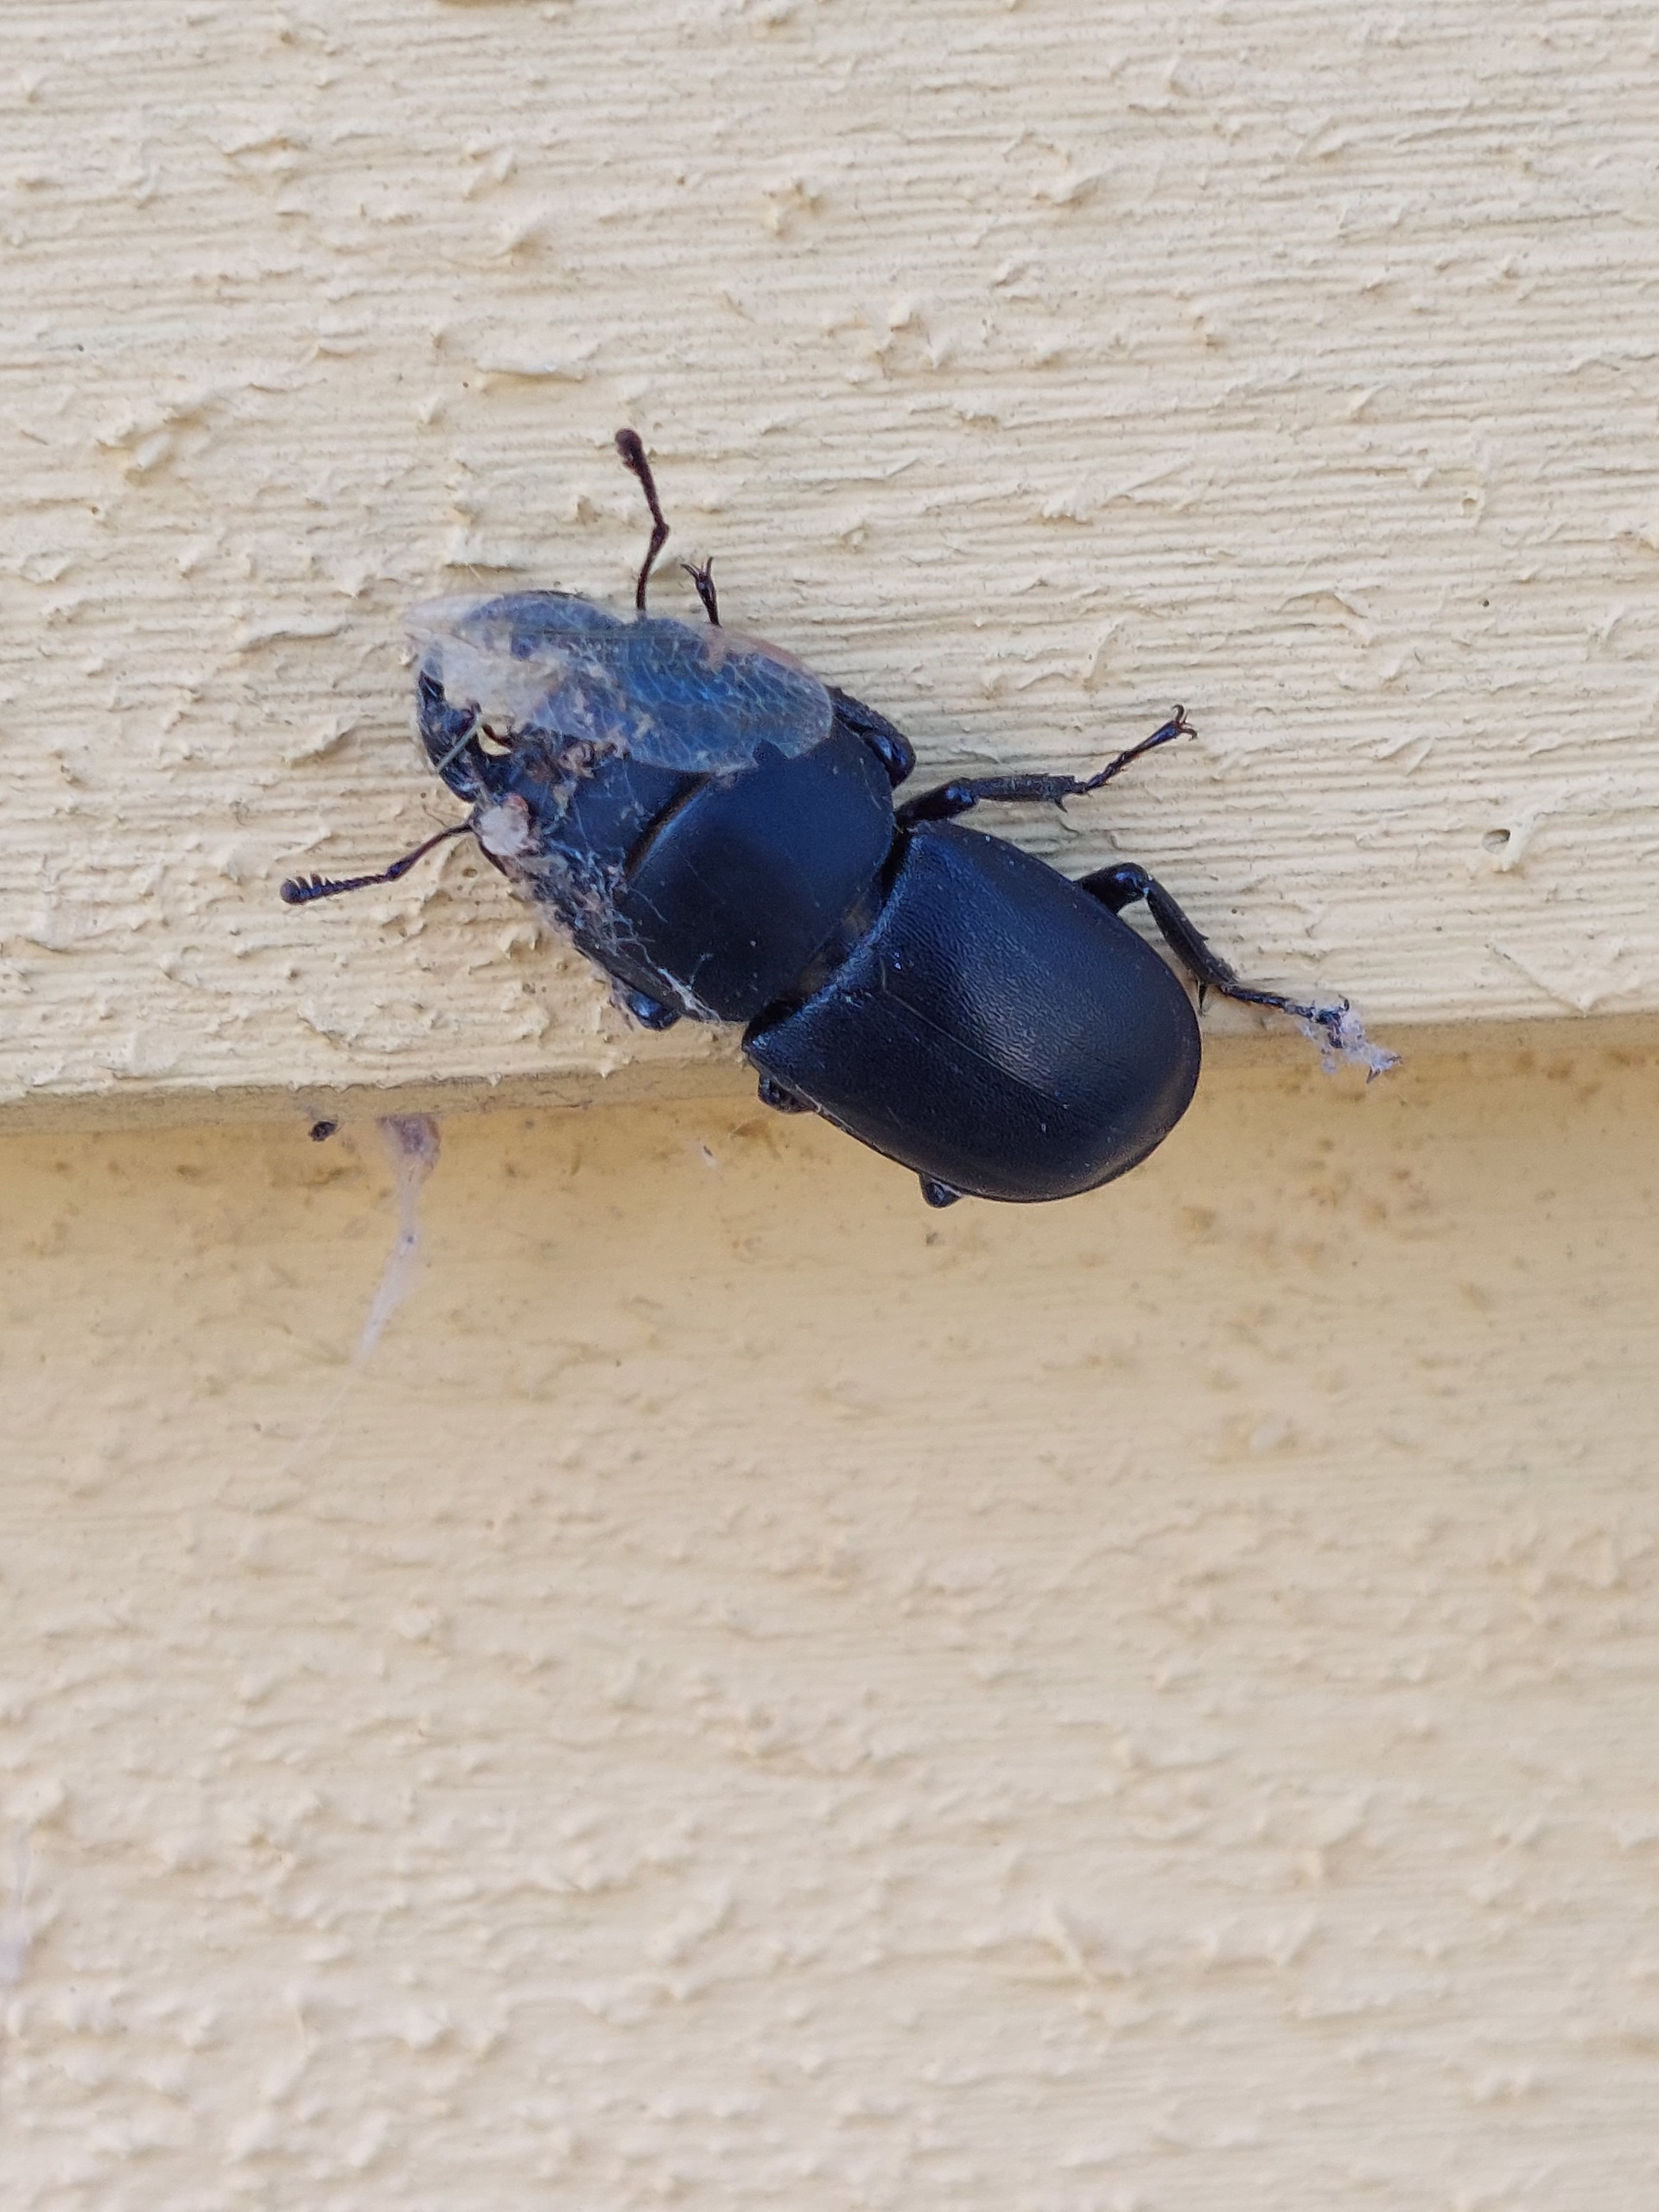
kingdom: Animalia
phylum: Arthropoda
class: Insecta
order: Coleoptera
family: Lucanidae
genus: Dorcus
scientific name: Dorcus parallelipipedus
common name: Bøghjort
